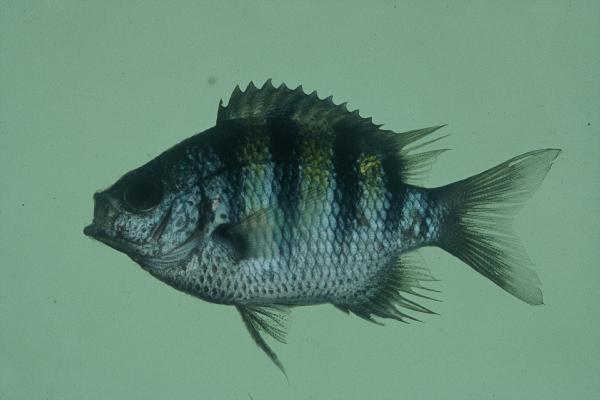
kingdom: Animalia
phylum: Chordata
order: Perciformes
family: Pomacentridae
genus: Abudefduf
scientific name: Abudefduf sexfasciatus
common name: Scissortail sergeant
